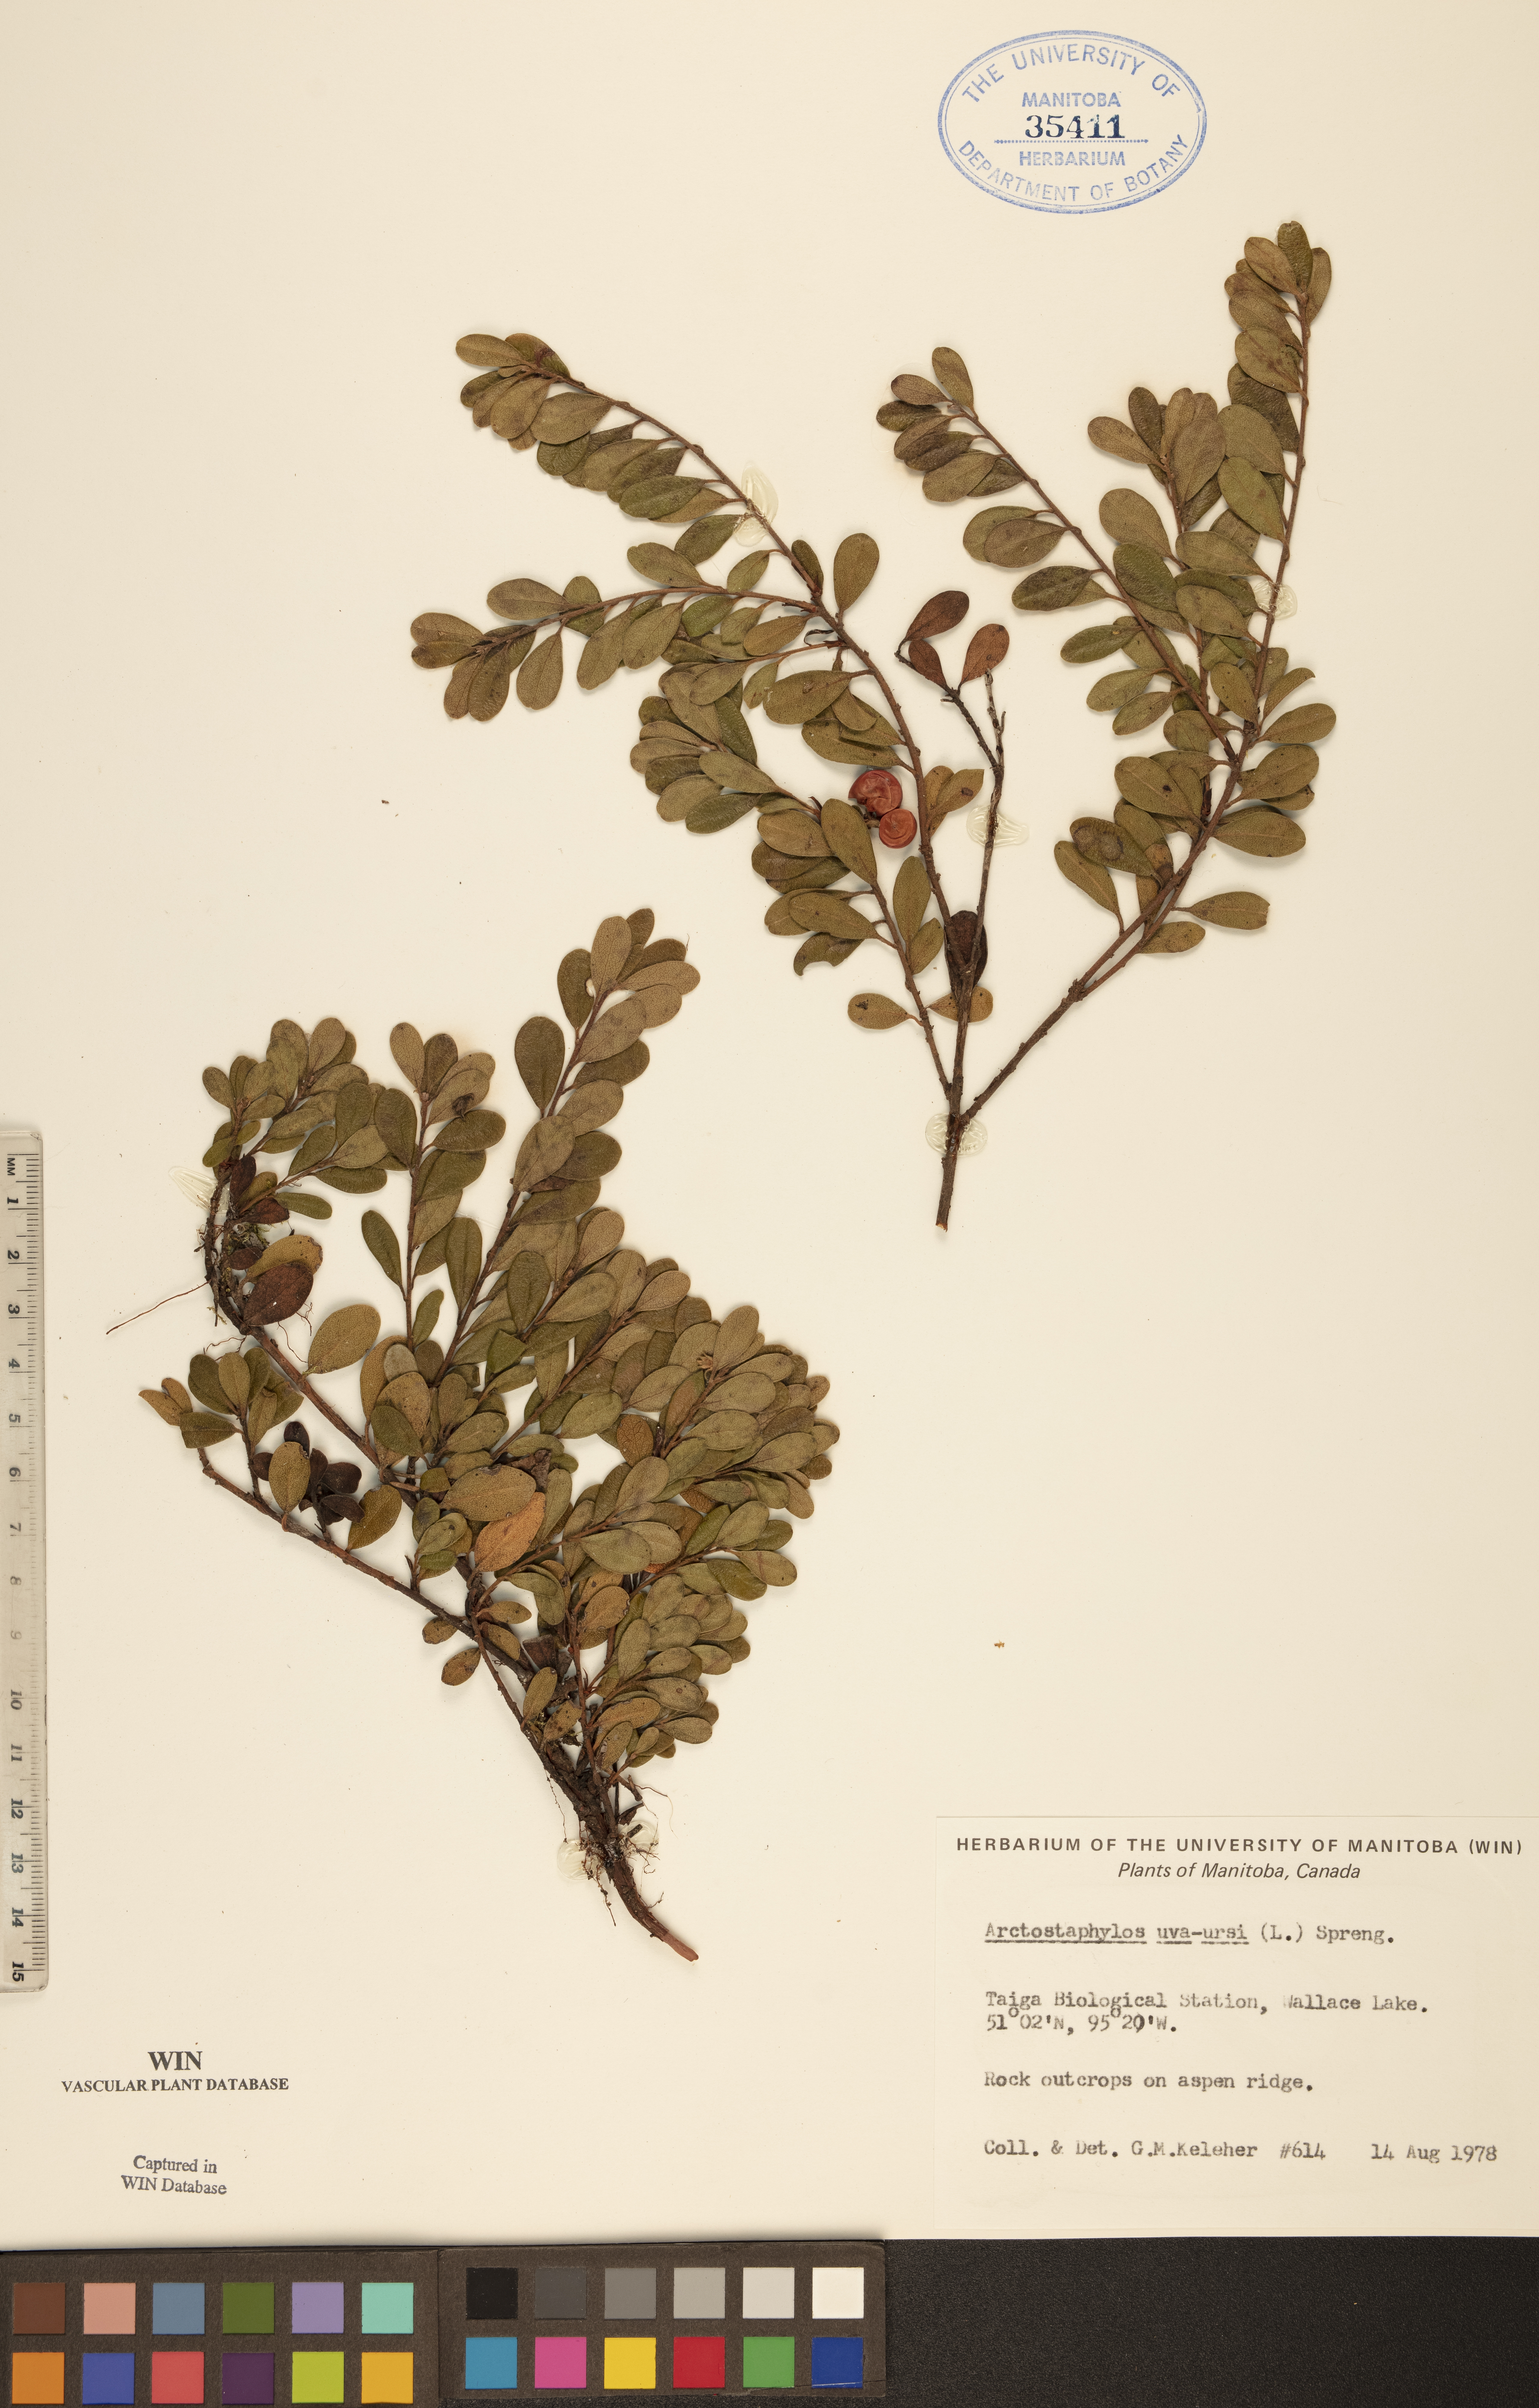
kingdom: Plantae
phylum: Tracheophyta
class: Magnoliopsida
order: Ericales
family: Ericaceae
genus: Arctostaphylos
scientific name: Arctostaphylos uva-ursi
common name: Bearberry
